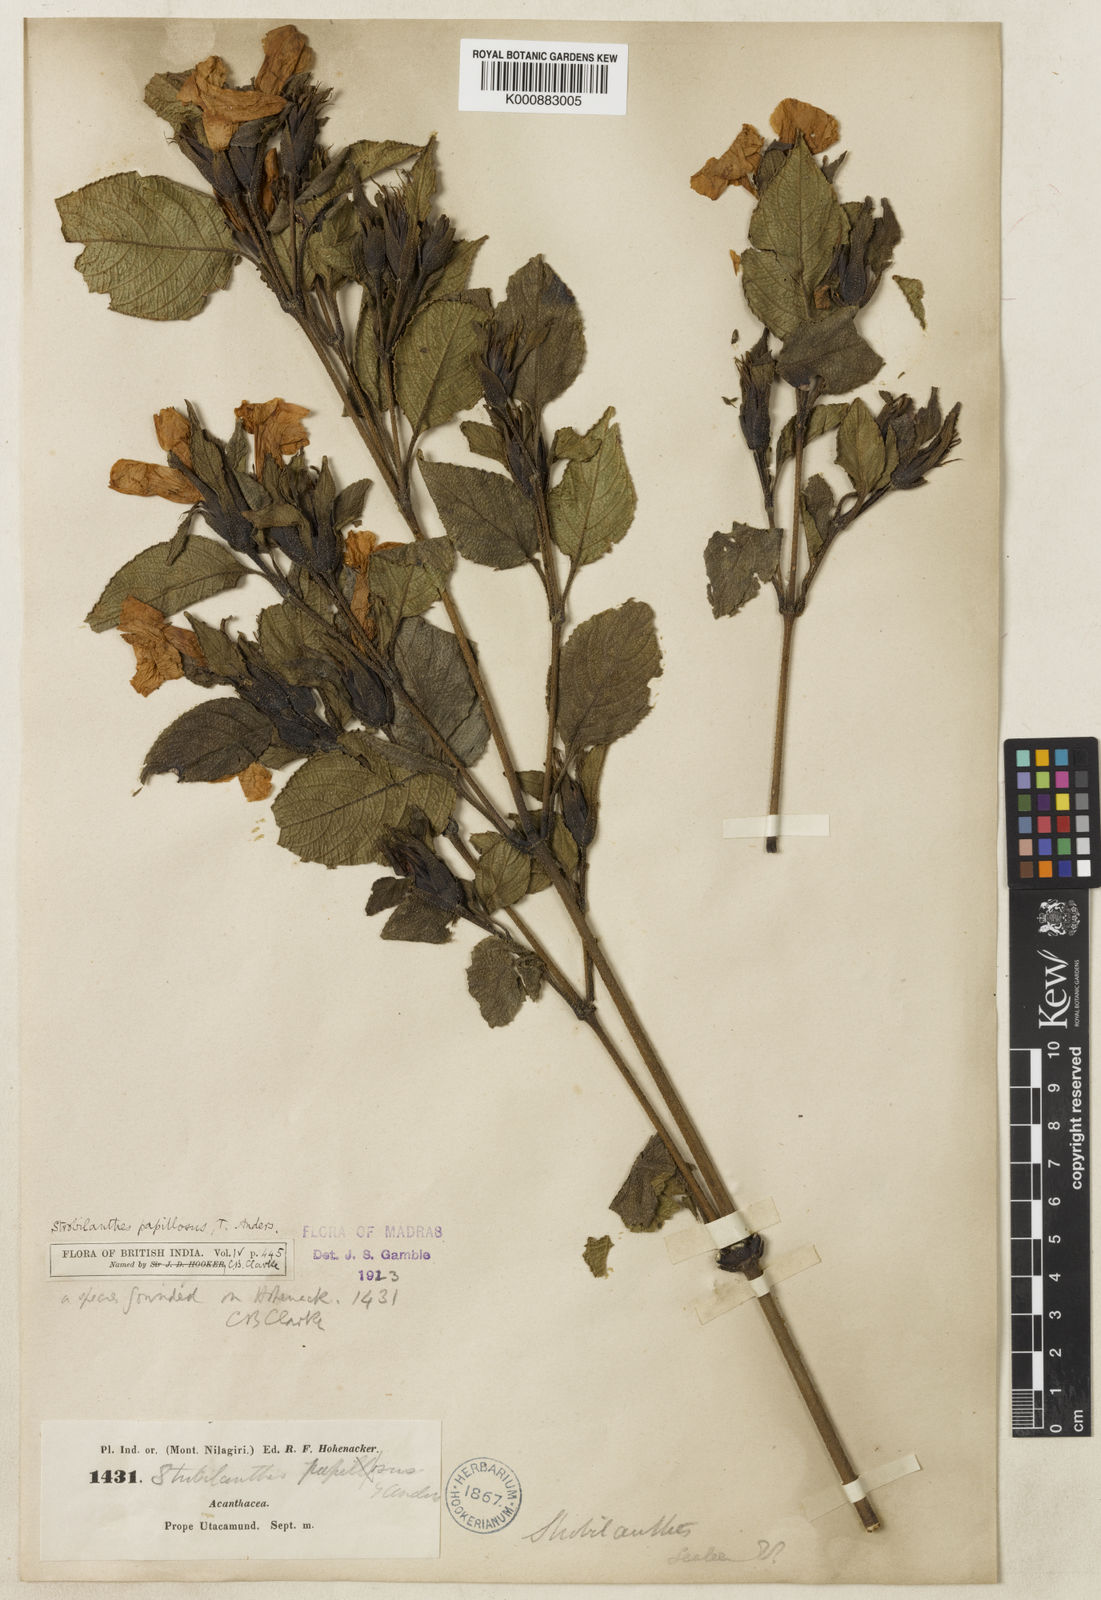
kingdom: Plantae
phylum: Tracheophyta
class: Magnoliopsida
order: Lamiales
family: Acanthaceae
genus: Strobilanthes
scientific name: Strobilanthes papillosa
